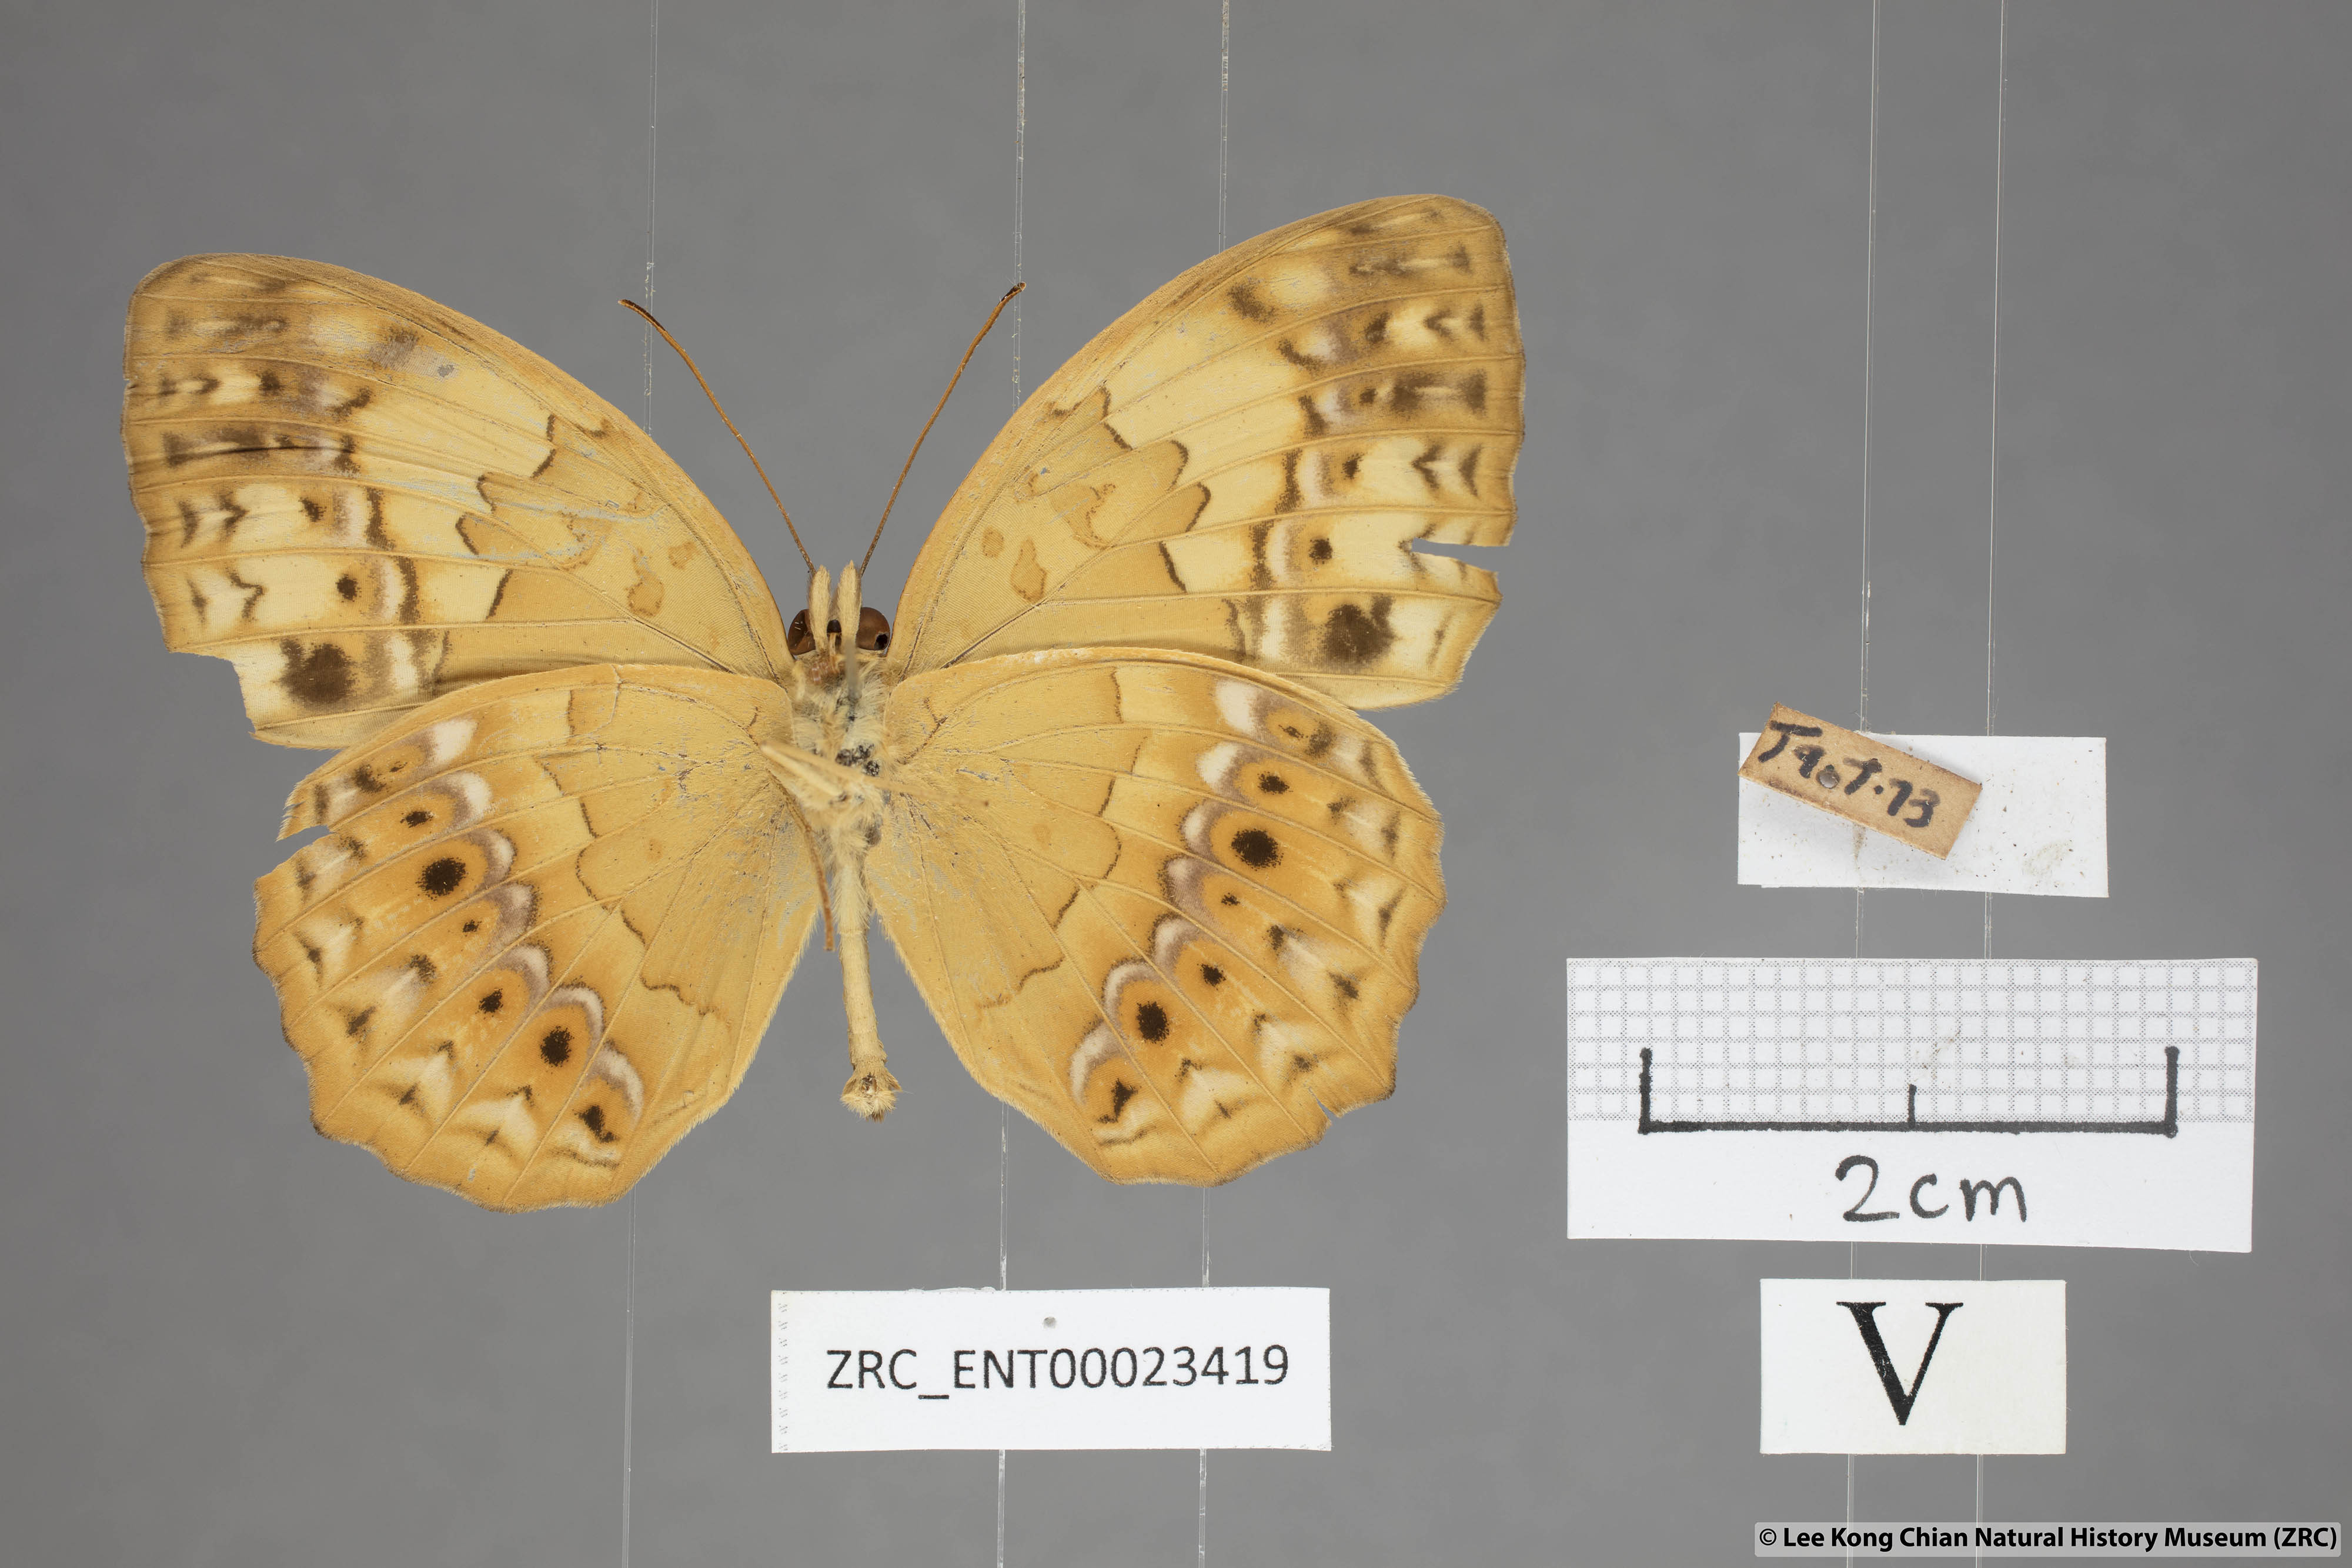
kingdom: Animalia
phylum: Arthropoda
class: Insecta
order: Lepidoptera
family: Nymphalidae
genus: Cupha
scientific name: Cupha erymanthis
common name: Rustic
